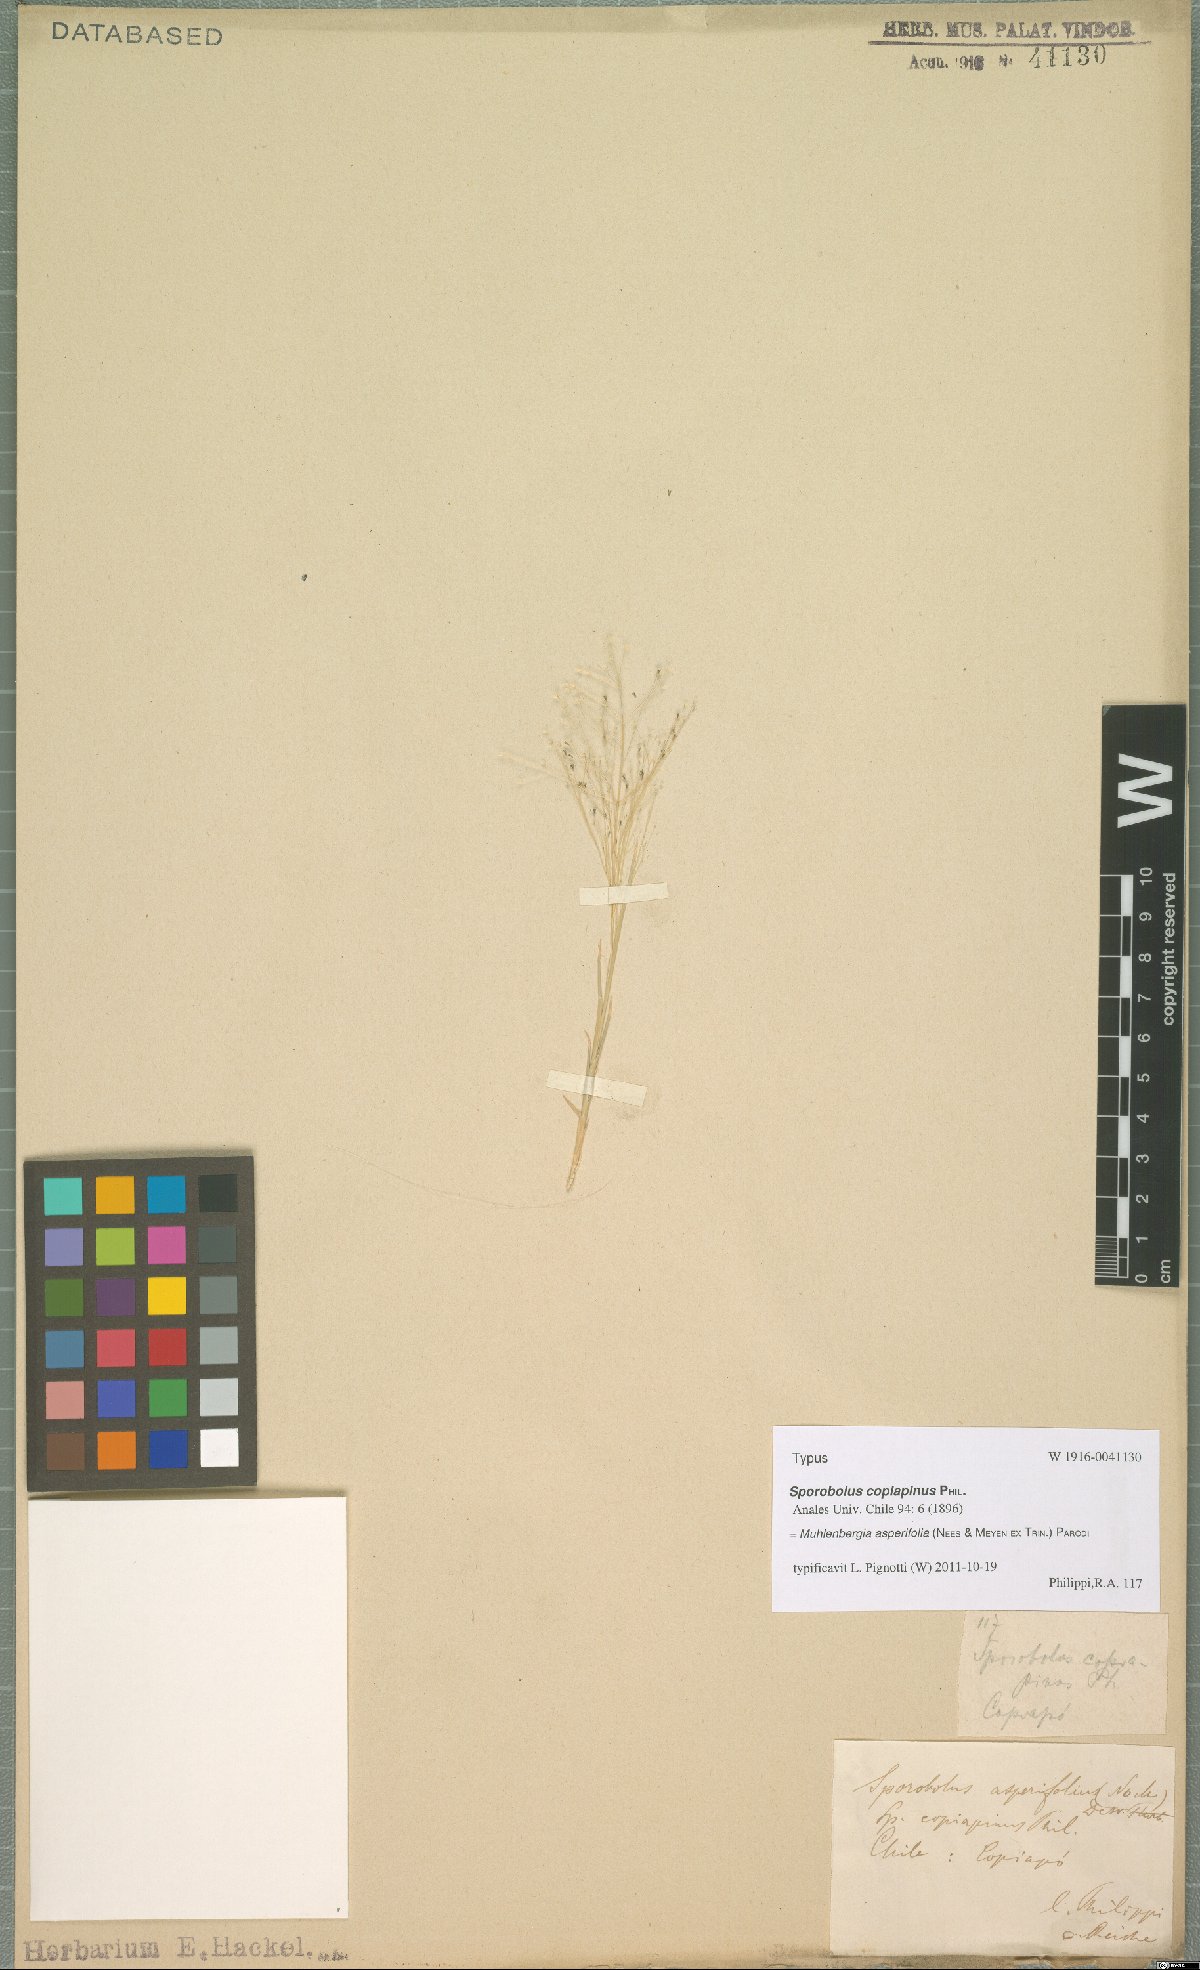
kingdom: Plantae
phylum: Tracheophyta
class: Liliopsida
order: Poales
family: Poaceae
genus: Muhlenbergia
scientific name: Muhlenbergia asperifolia
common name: Alkali muhly
